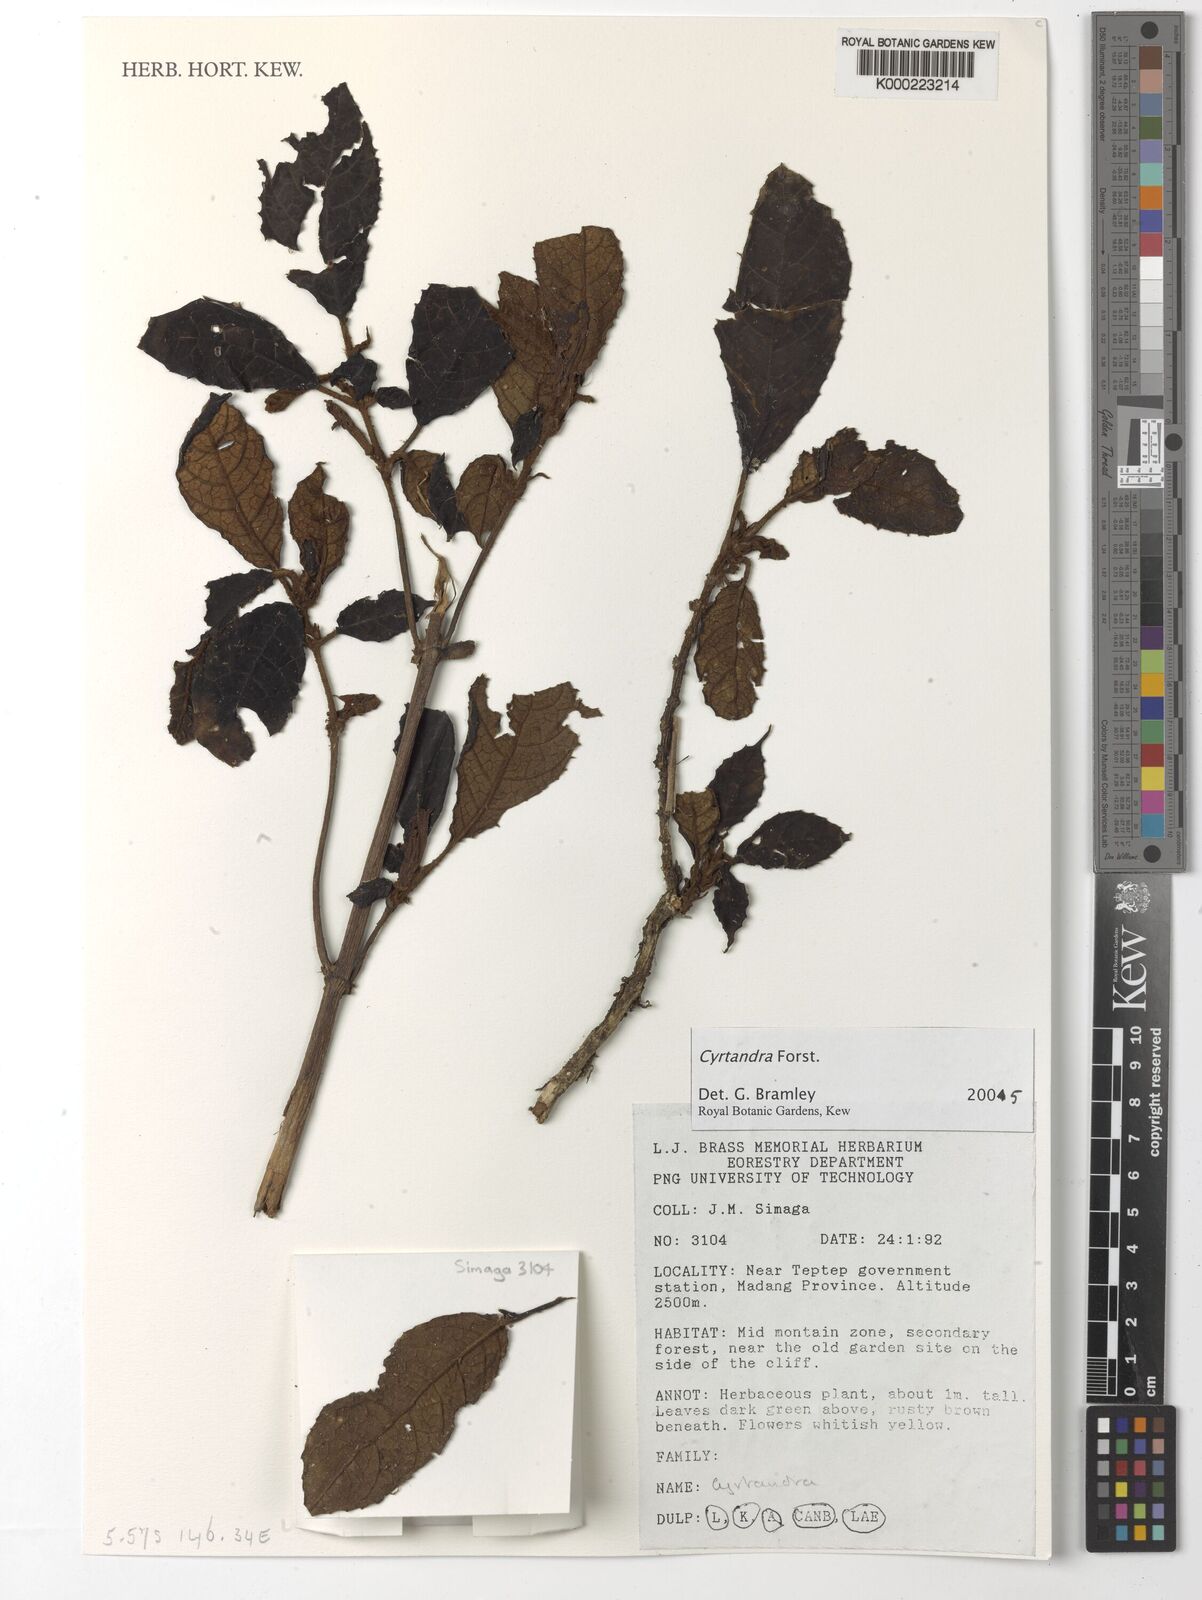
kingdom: Plantae
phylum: Tracheophyta
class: Magnoliopsida
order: Lamiales
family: Gesneriaceae
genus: Cyrtandra
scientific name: Cyrtandra
